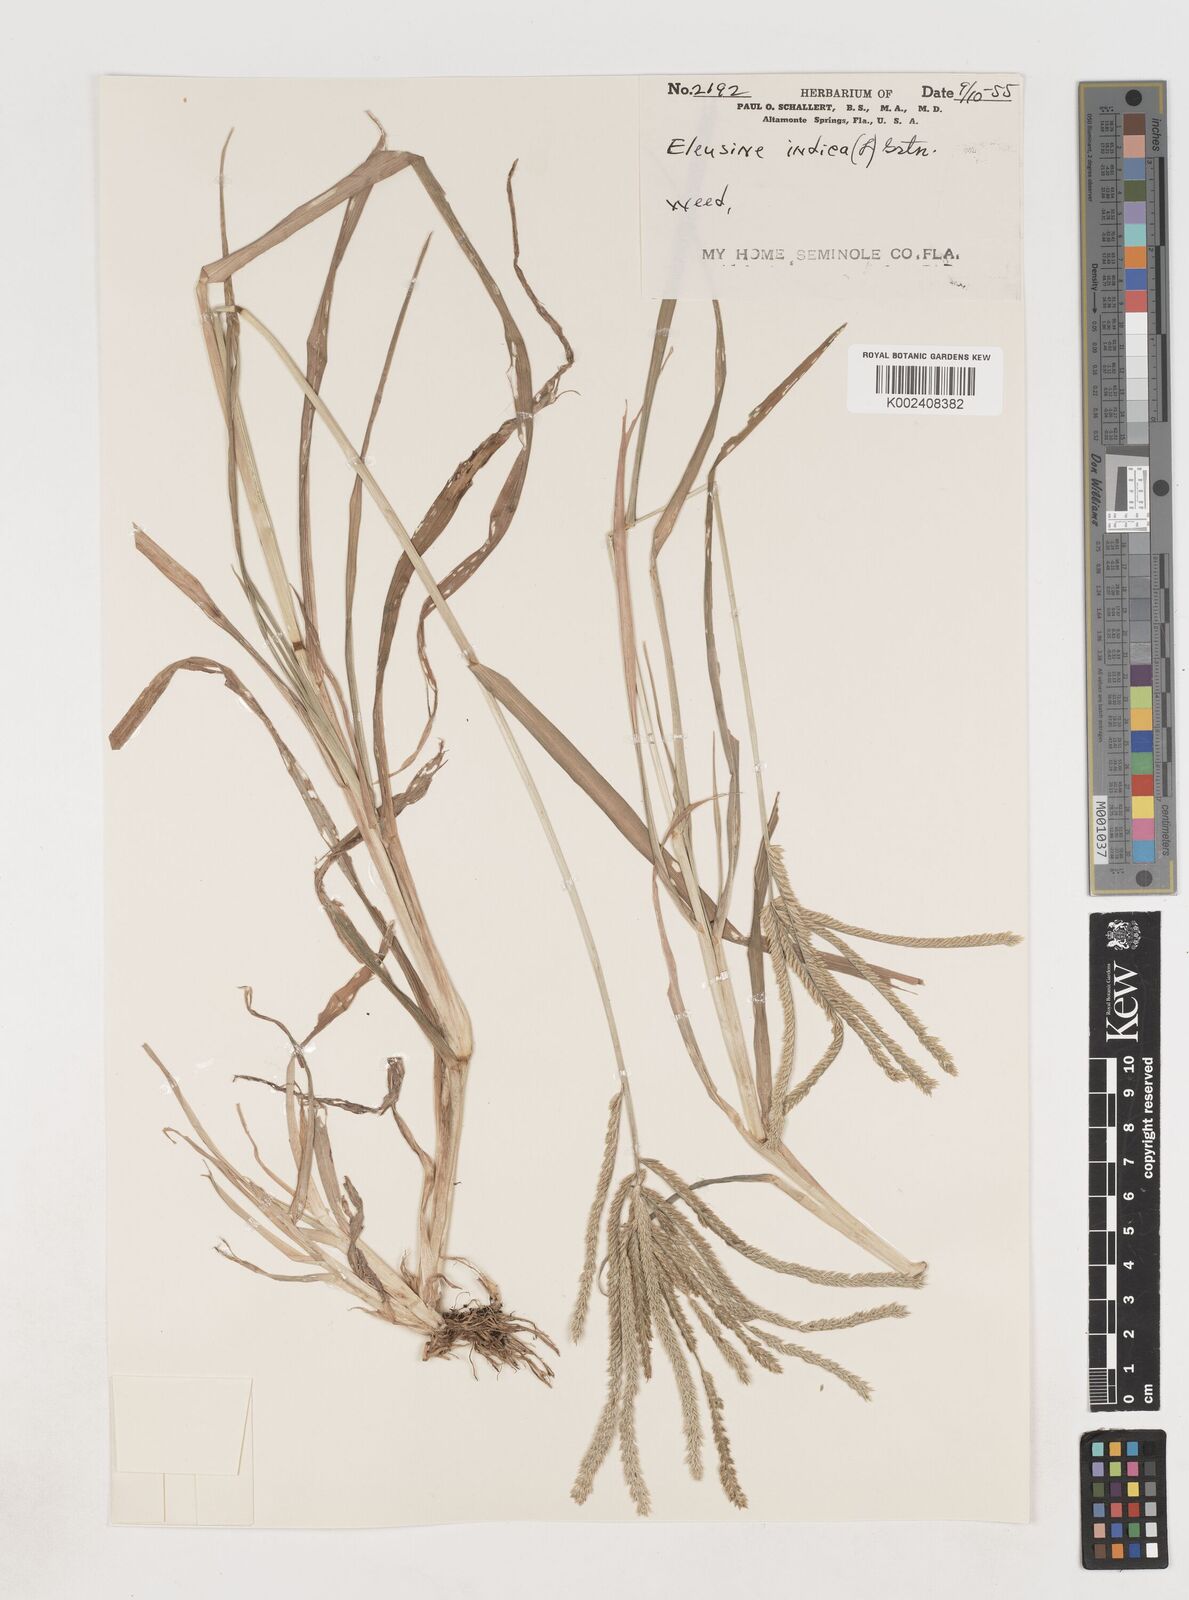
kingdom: Plantae
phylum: Tracheophyta
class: Liliopsida
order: Poales
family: Poaceae
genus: Eleusine
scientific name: Eleusine indica
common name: Yard-grass
